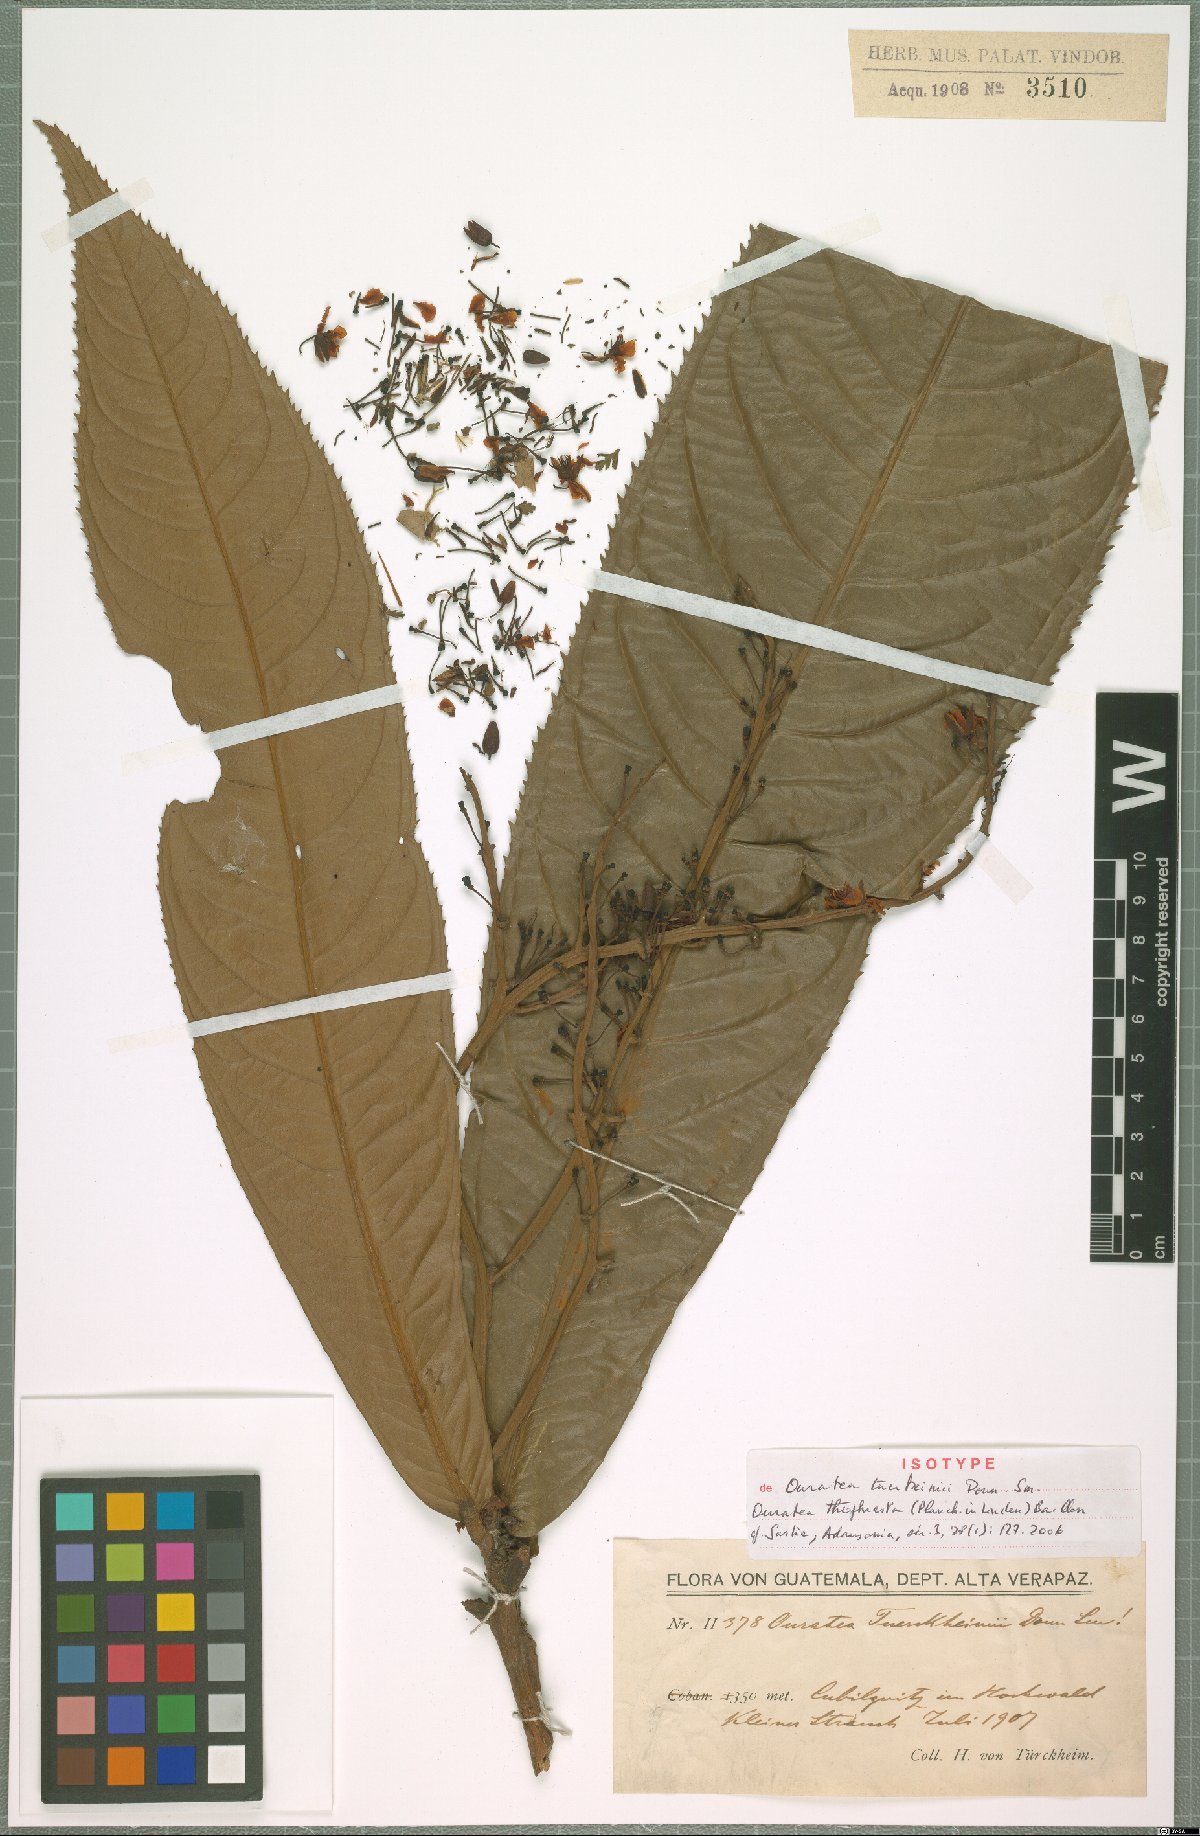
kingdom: Plantae
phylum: Tracheophyta
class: Magnoliopsida
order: Malpighiales
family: Ochnaceae
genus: Ouratea
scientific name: Ouratea theophrasta
